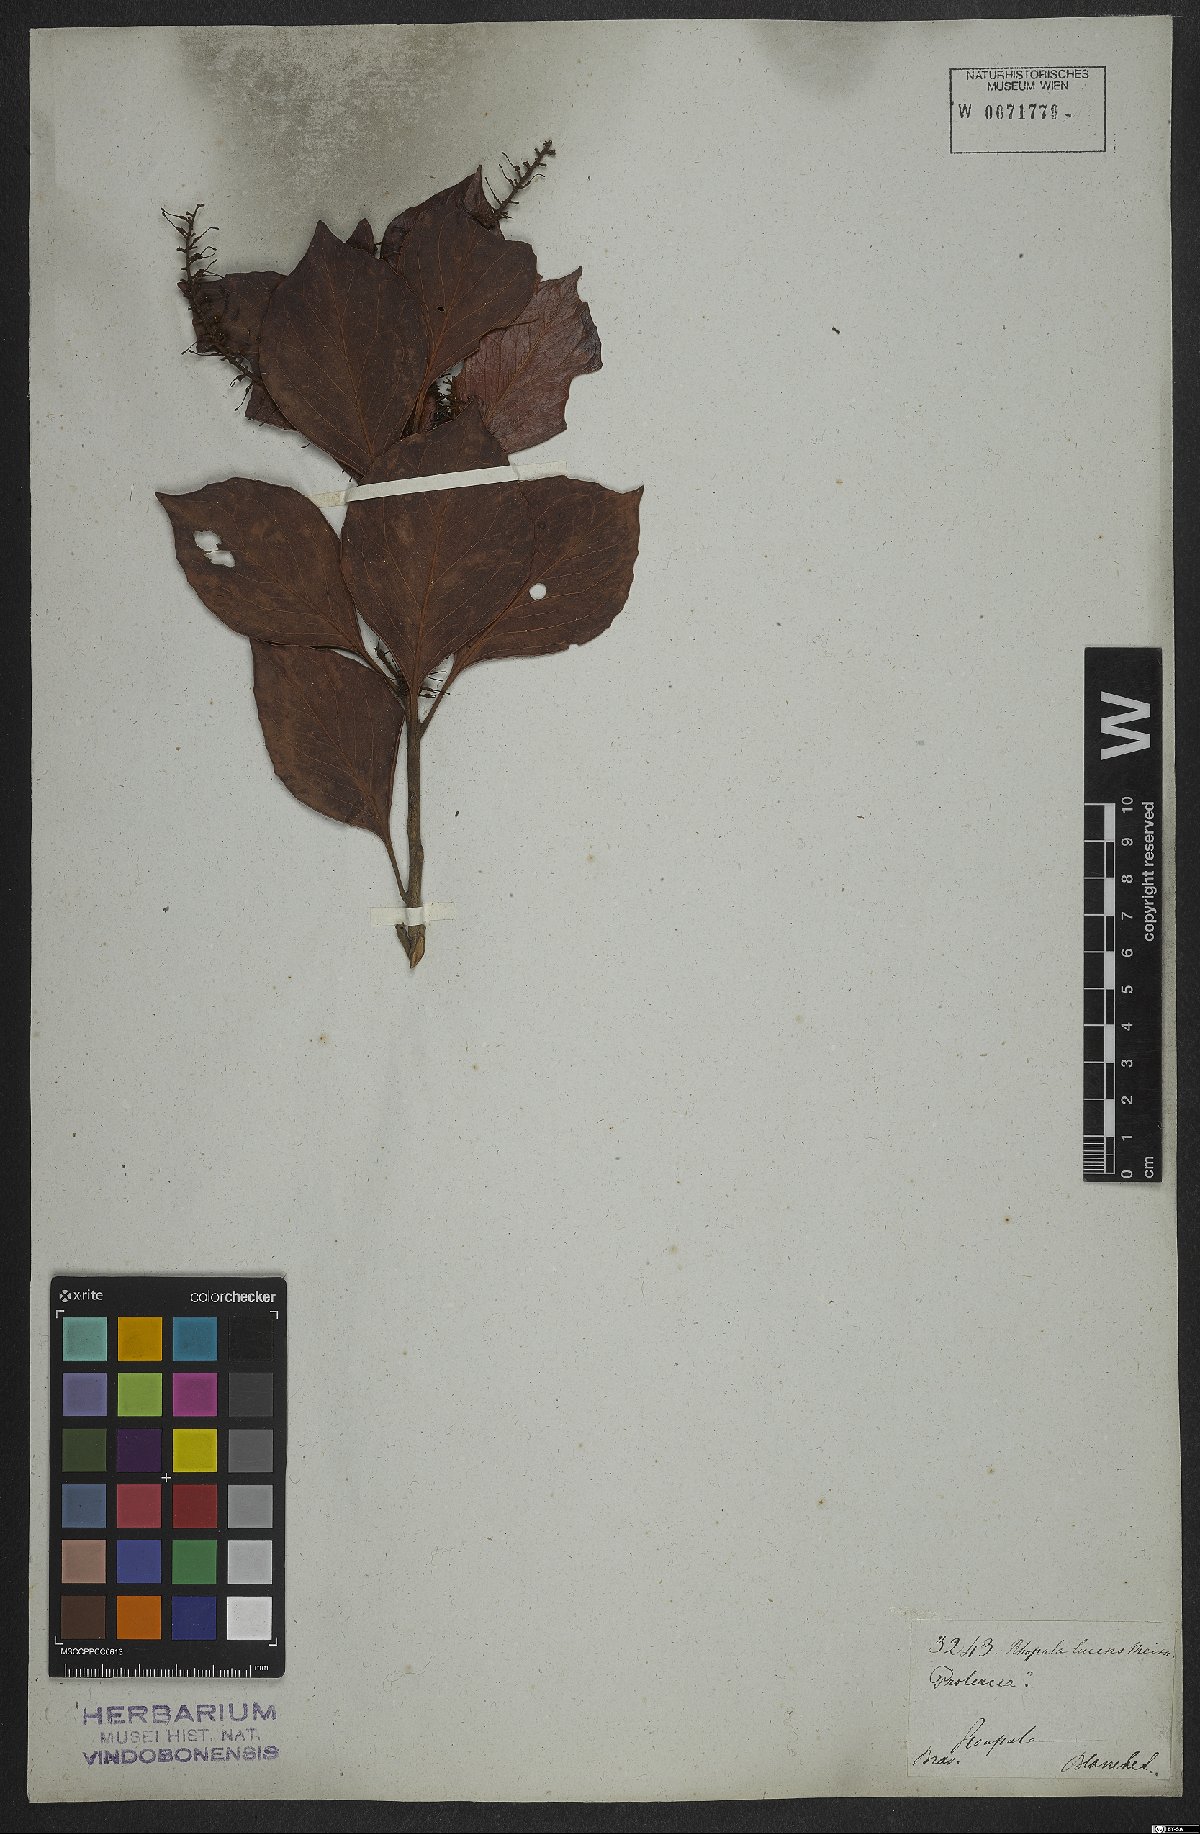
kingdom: Plantae
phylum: Tracheophyta
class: Magnoliopsida
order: Proteales
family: Proteaceae
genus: Roupala
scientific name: Roupala lucens
